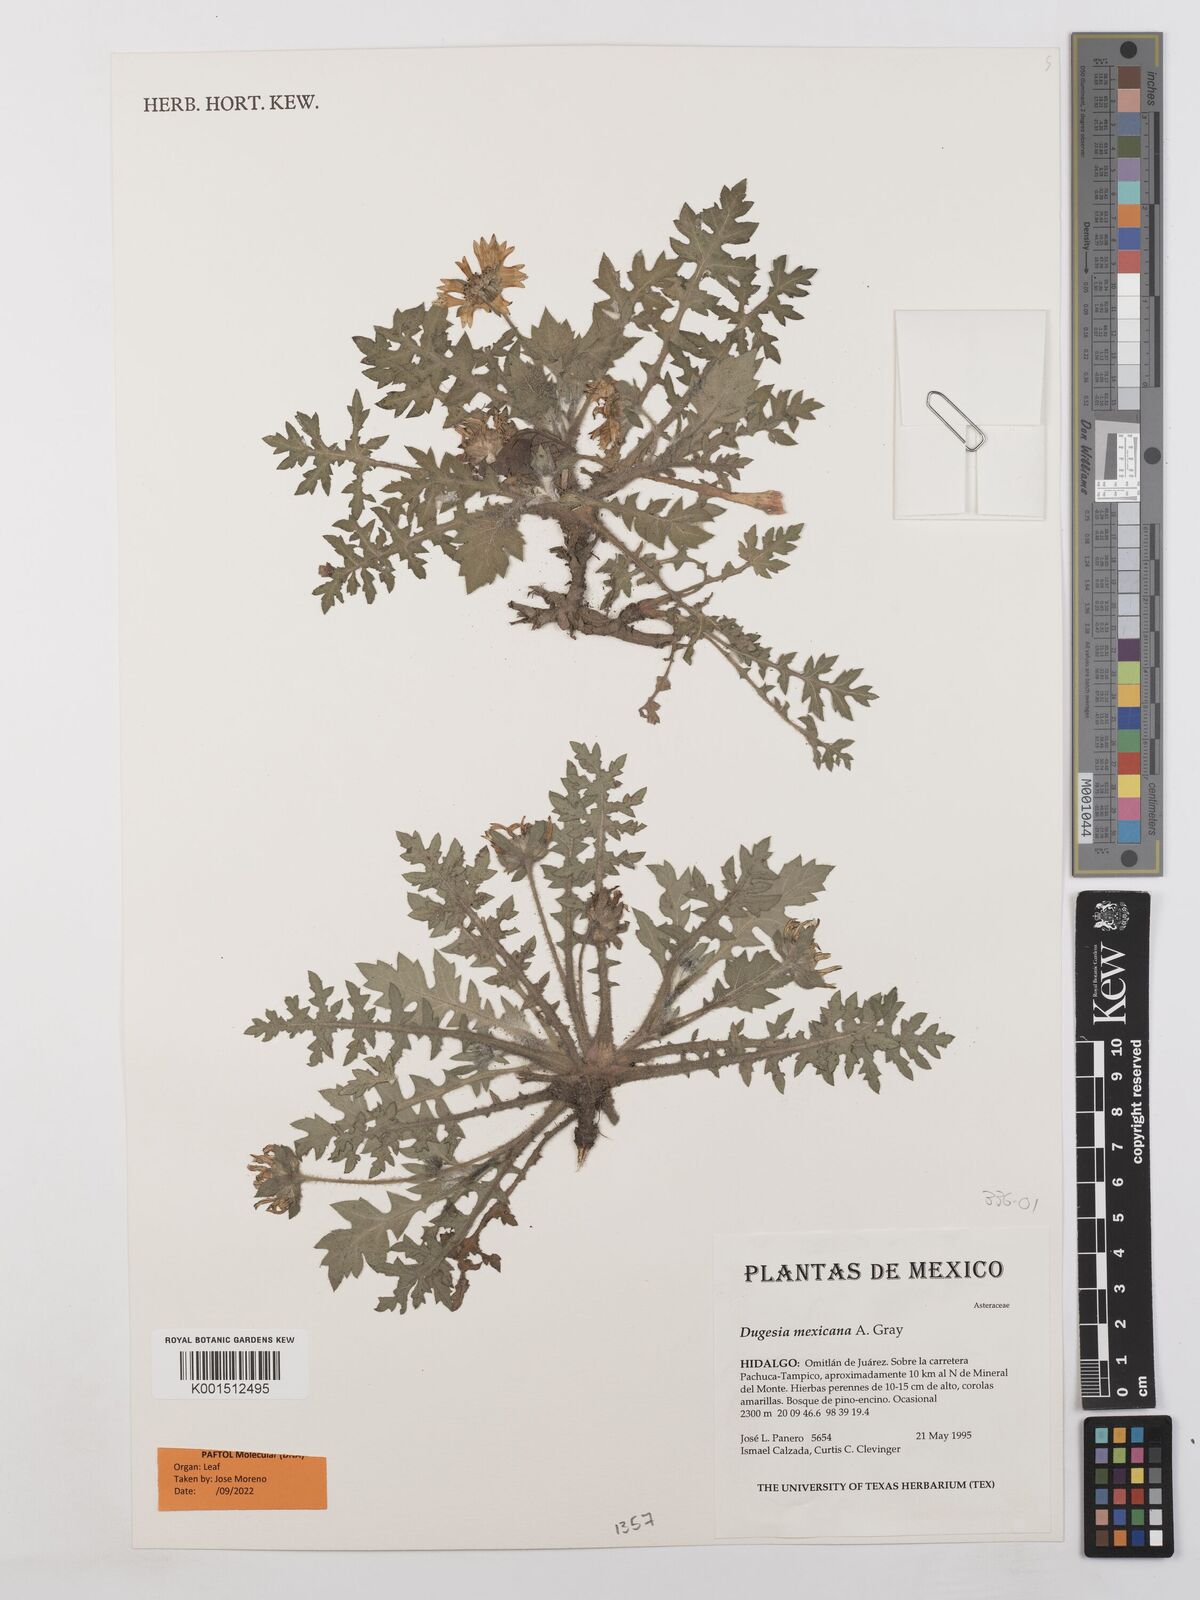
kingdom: Plantae
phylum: Tracheophyta
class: Magnoliopsida
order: Asterales
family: Asteraceae
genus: Dugesia
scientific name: Dugesia mexicana
